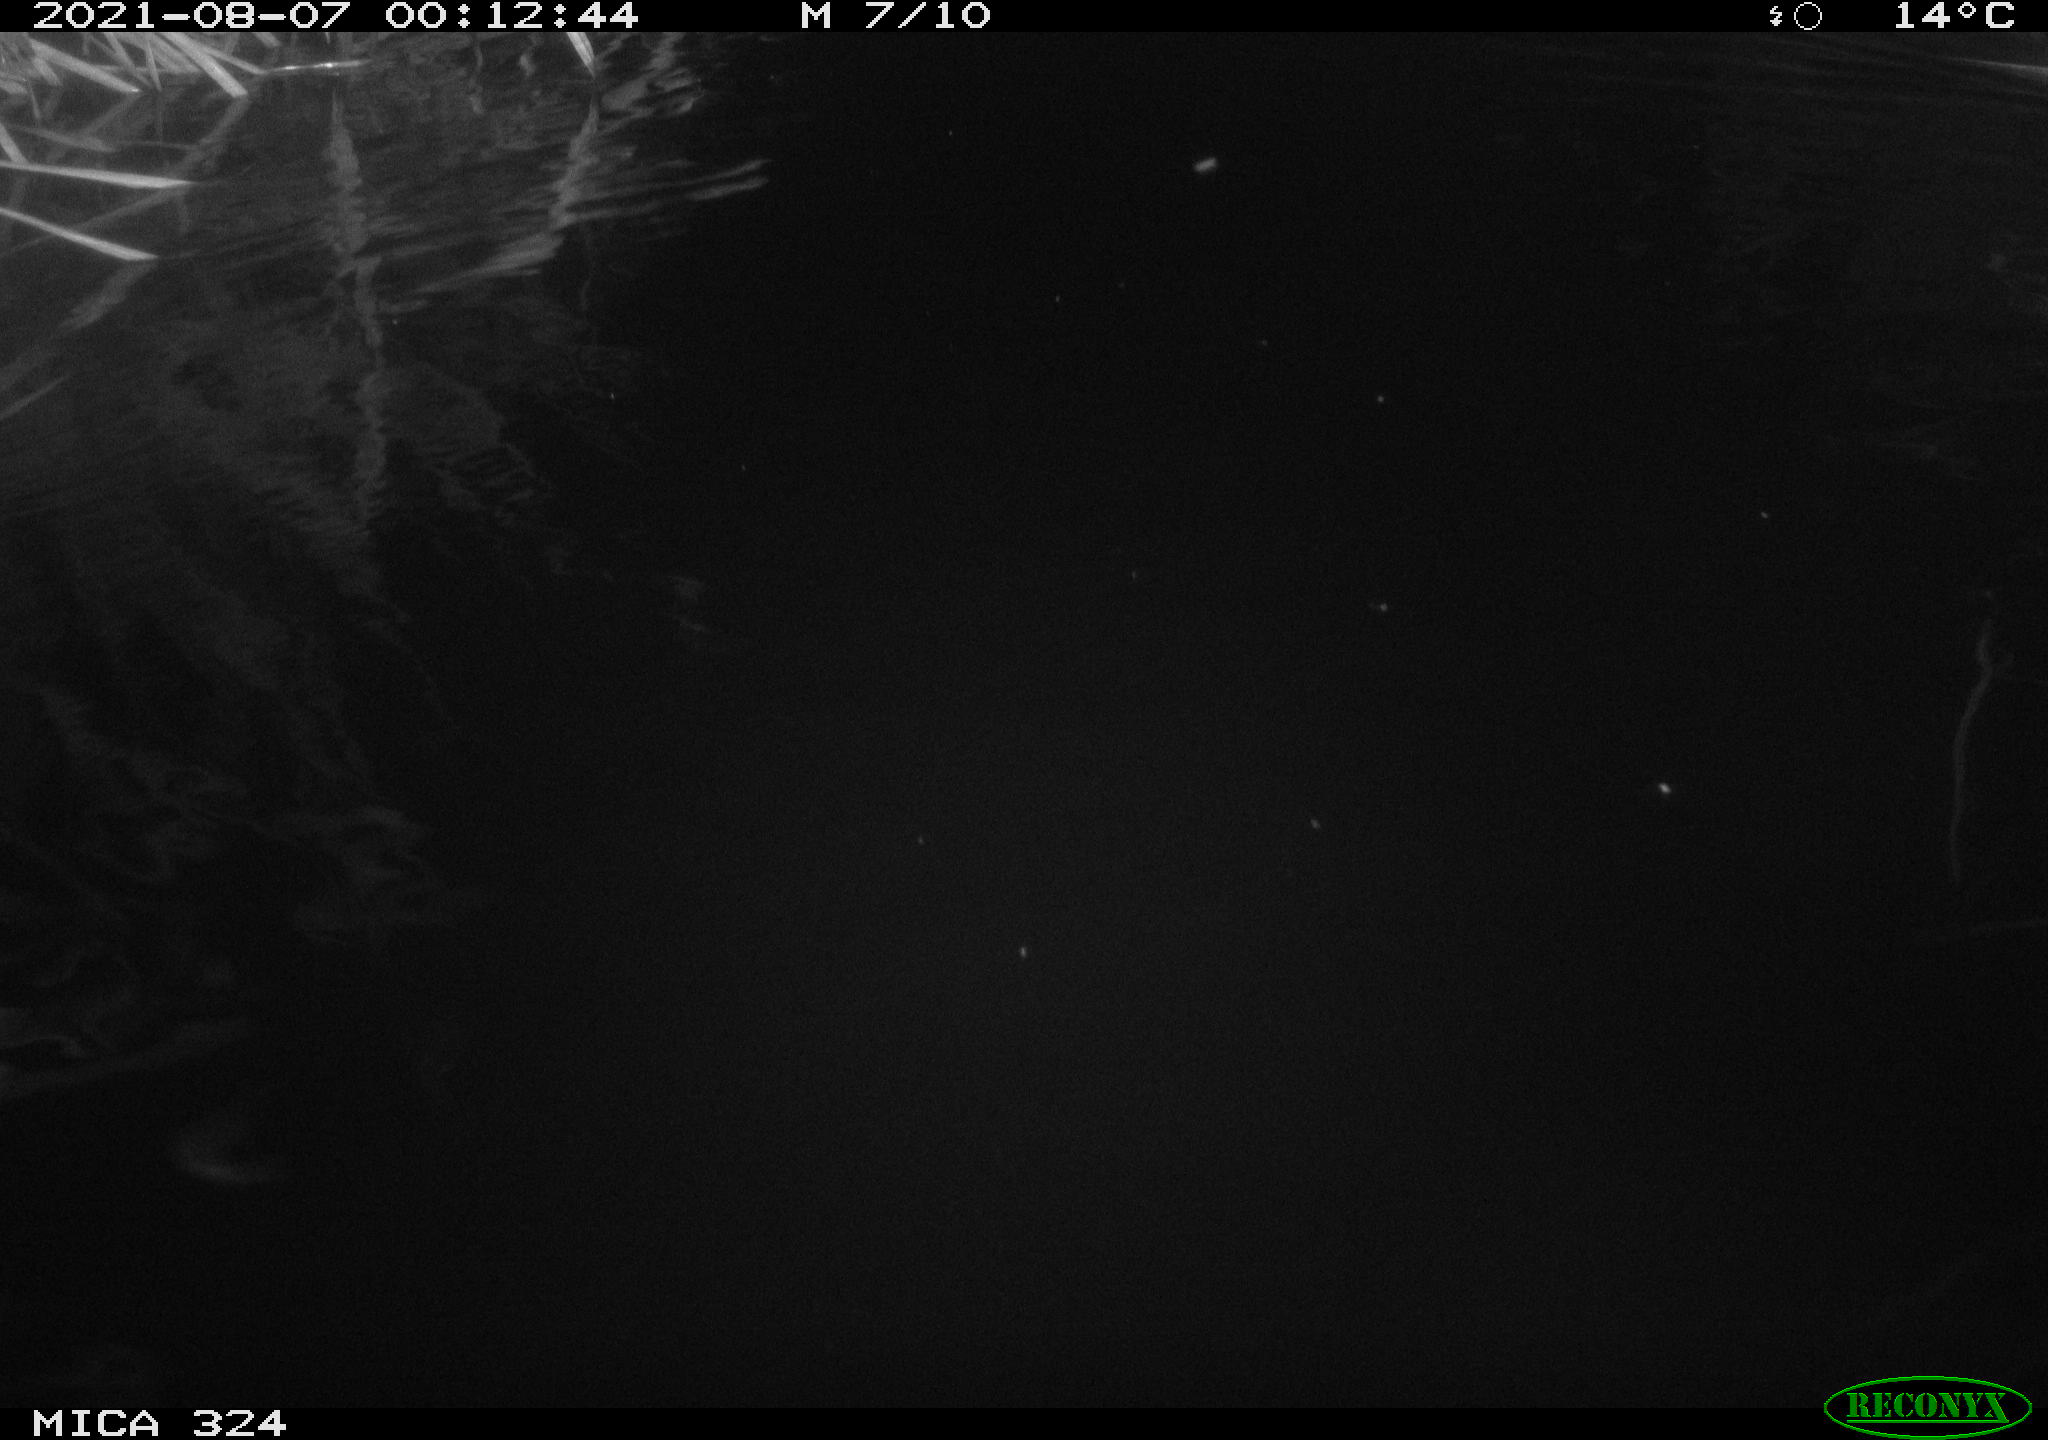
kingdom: Animalia
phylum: Chordata
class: Mammalia
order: Rodentia
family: Cricetidae
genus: Ondatra
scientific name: Ondatra zibethicus
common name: Muskrat
